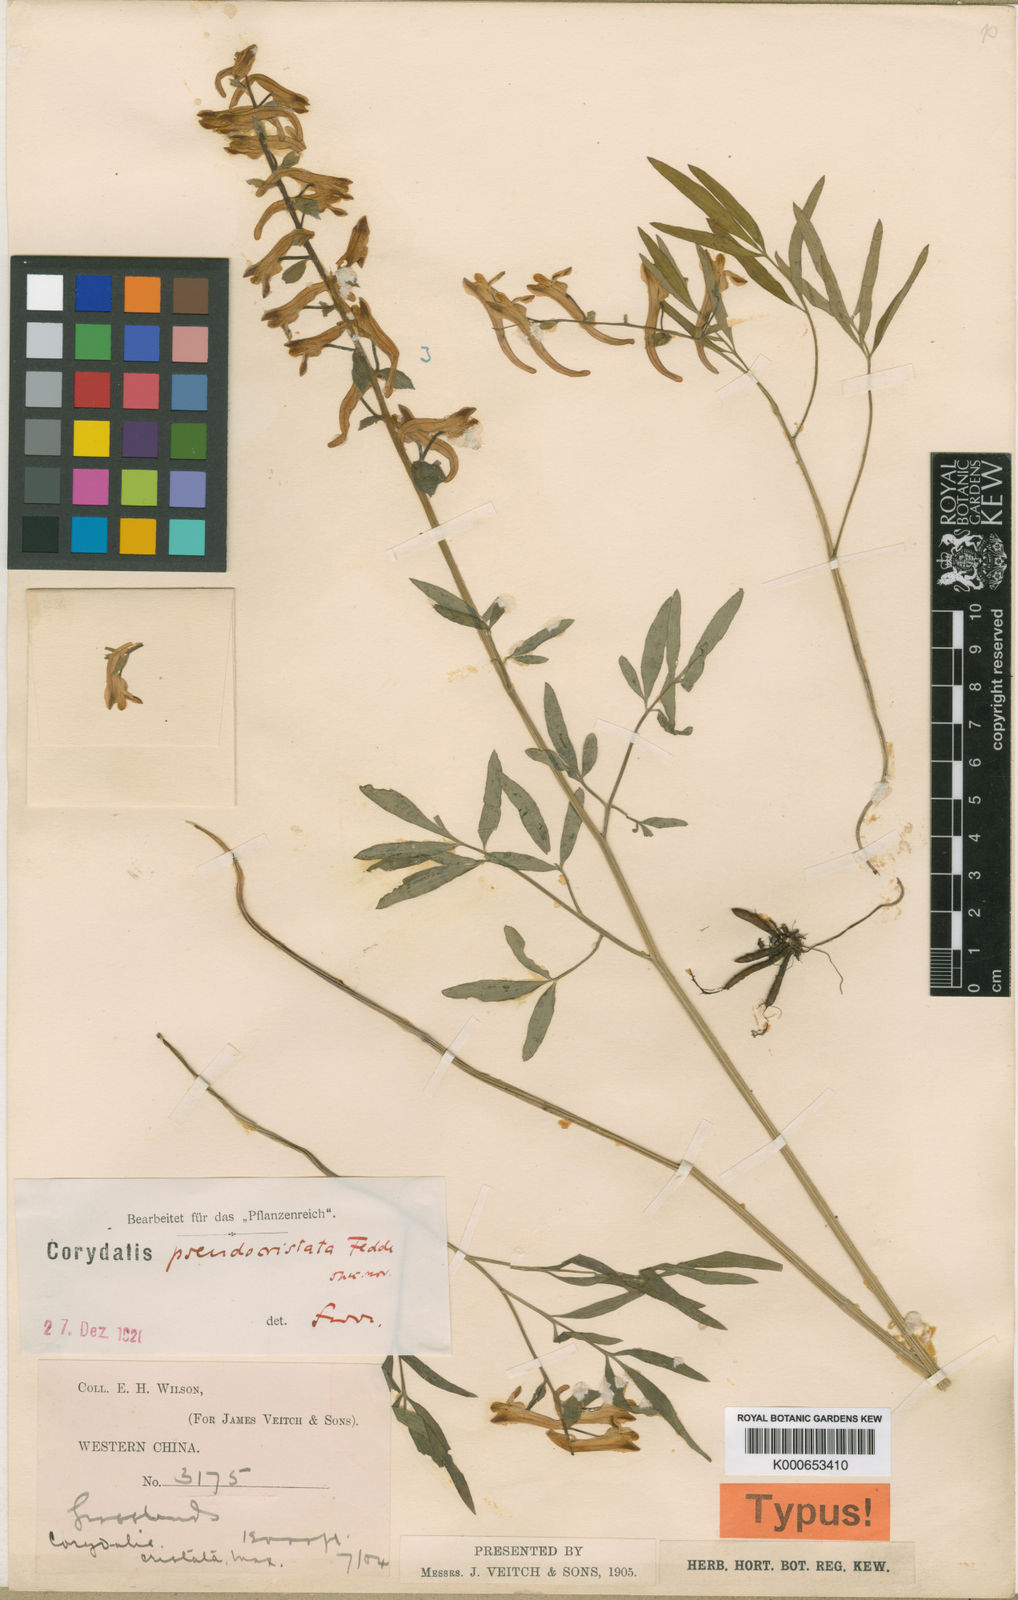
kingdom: Plantae
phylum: Tracheophyta
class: Magnoliopsida
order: Ranunculales
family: Papaveraceae
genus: Corydalis
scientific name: Corydalis pseudocristata
